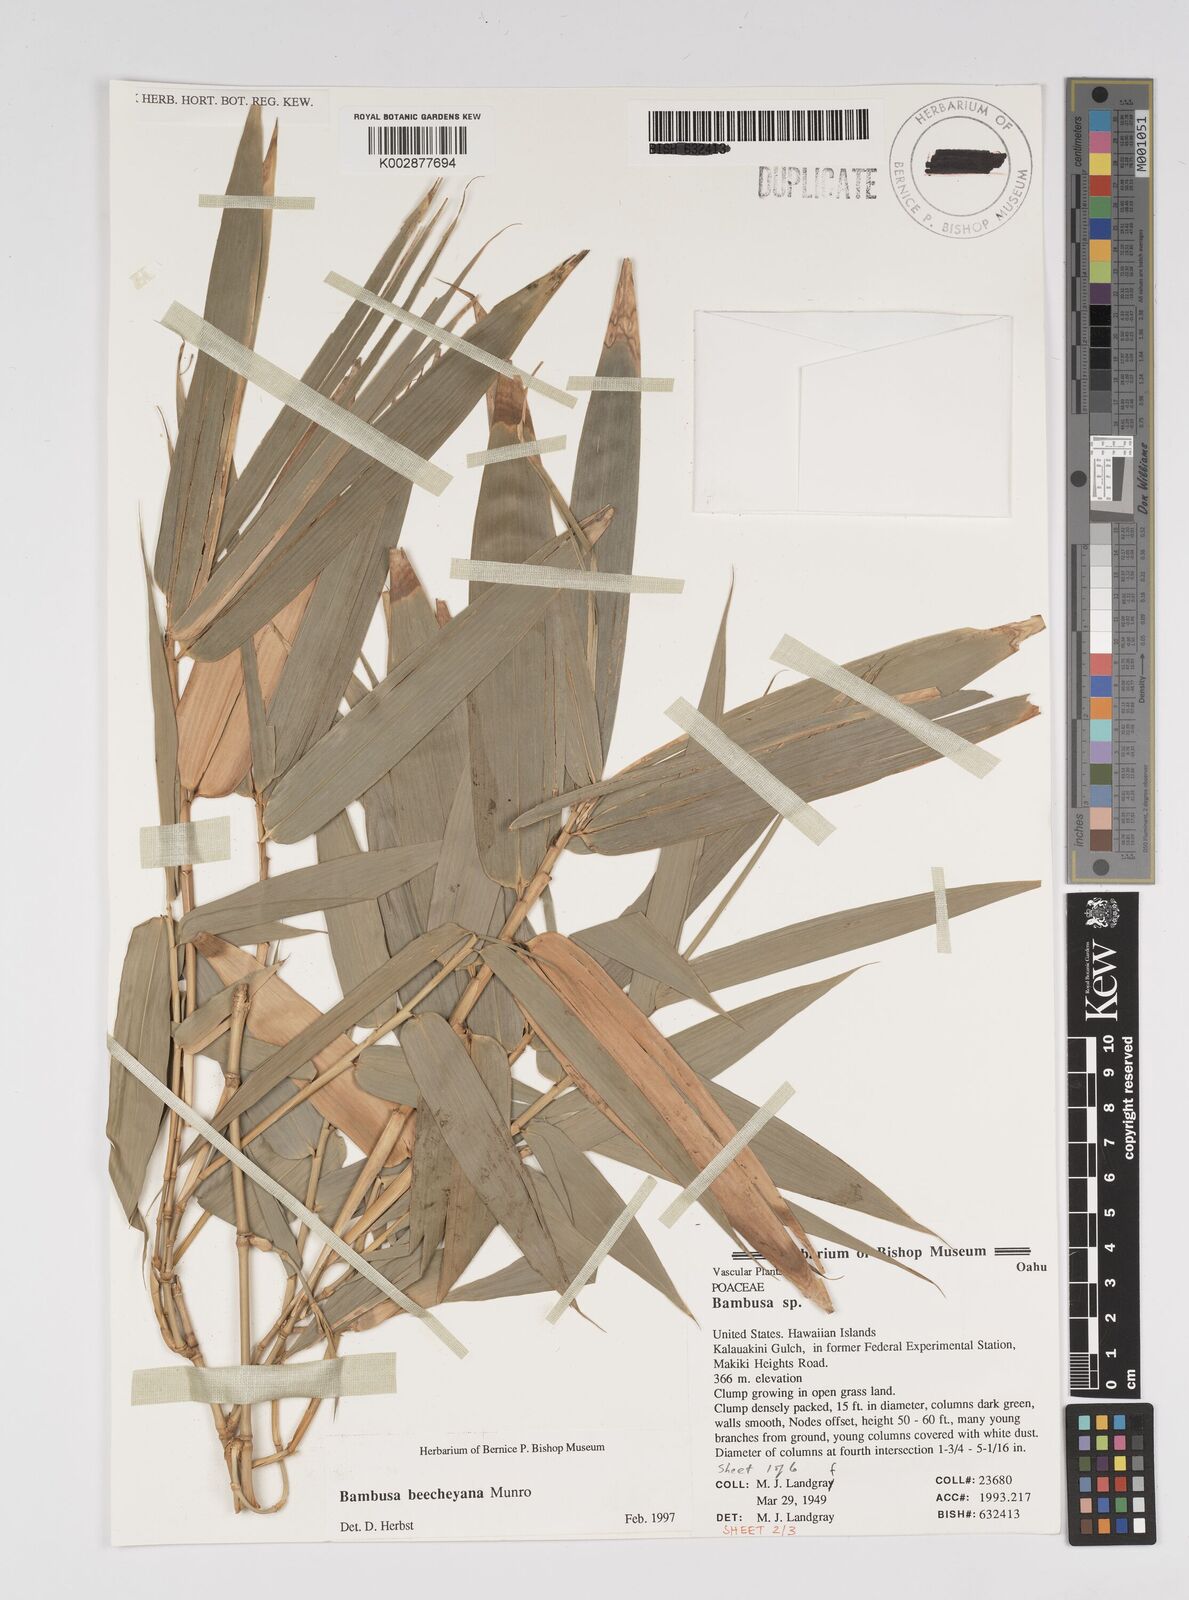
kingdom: Plantae
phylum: Tracheophyta
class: Liliopsida
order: Poales
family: Poaceae
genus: Bambusa
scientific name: Bambusa beecheyana
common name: Beechey's bamboo
